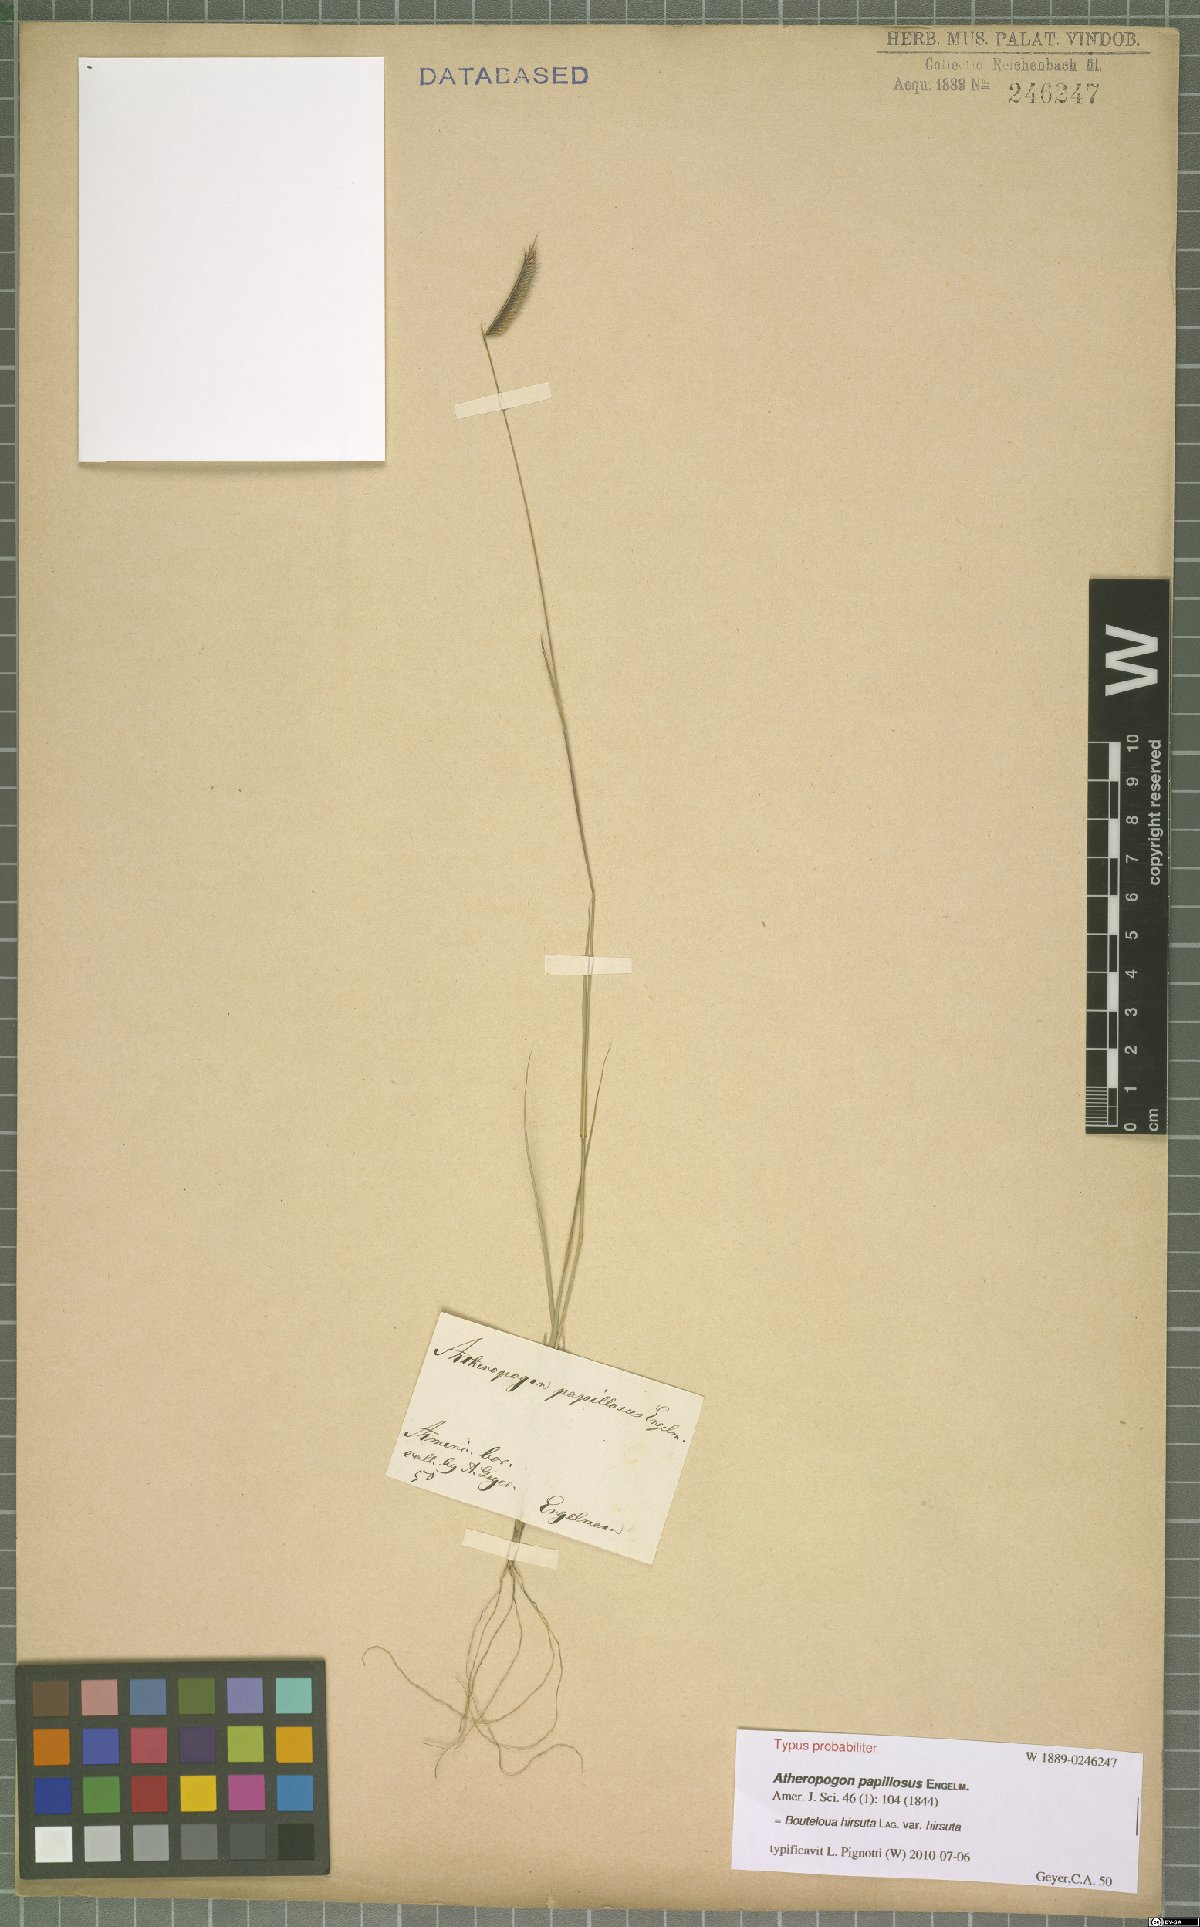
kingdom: Plantae
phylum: Tracheophyta
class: Liliopsida
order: Poales
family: Poaceae
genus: Bouteloua
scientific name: Bouteloua hirsuta
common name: Hairy grama
